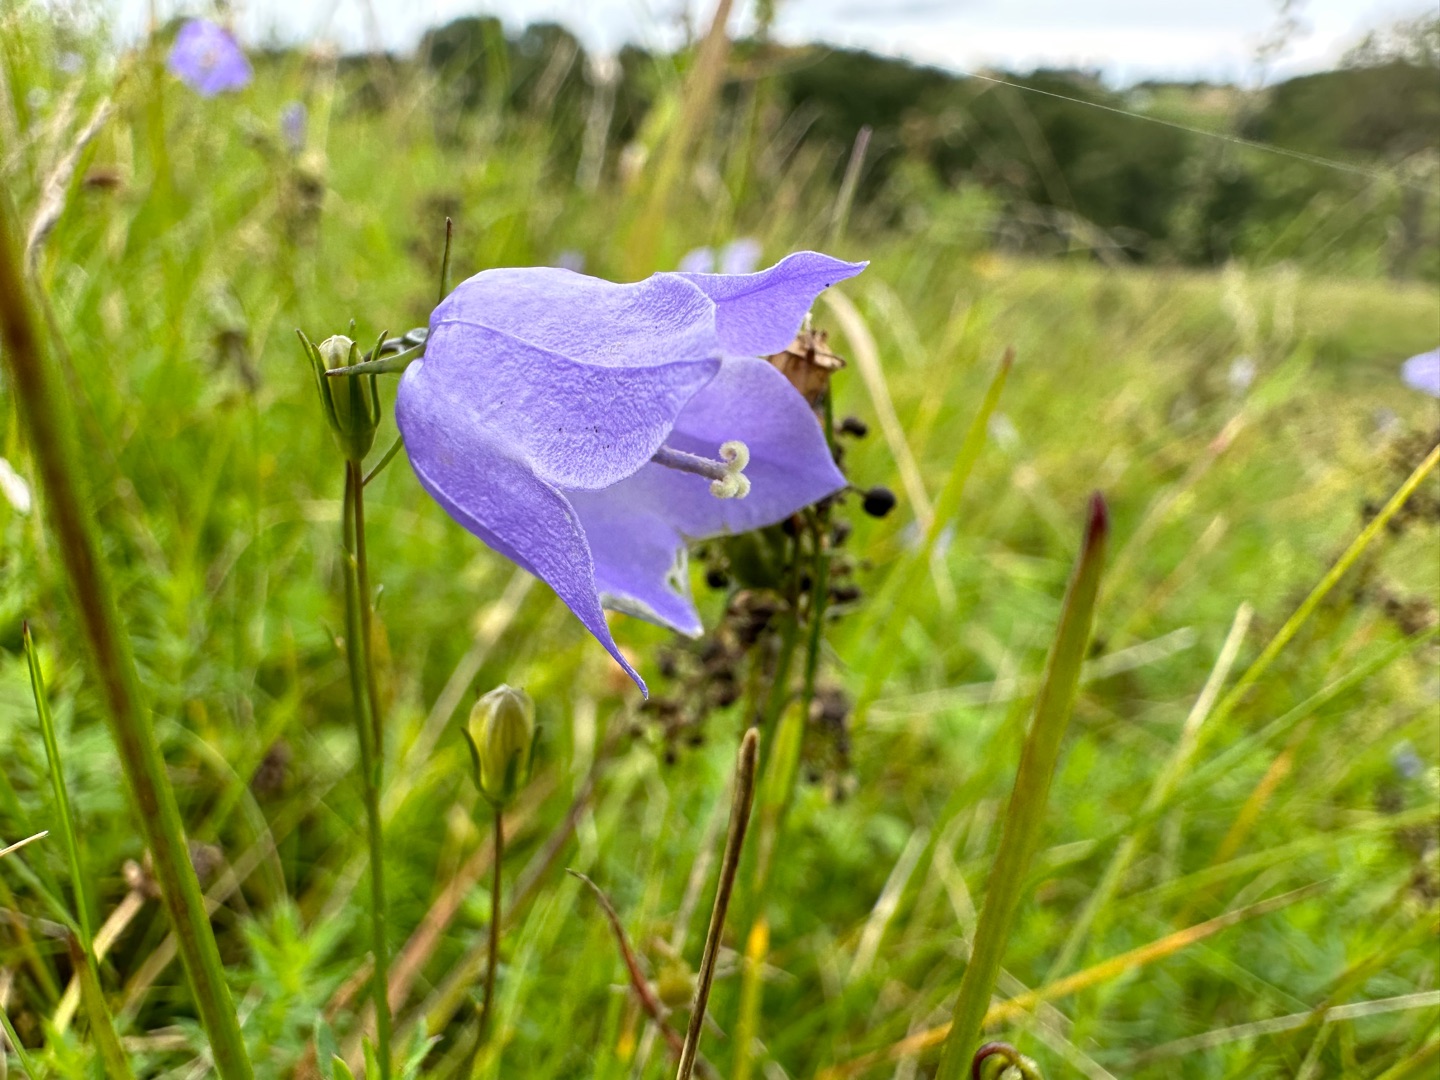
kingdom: Plantae
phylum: Tracheophyta
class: Magnoliopsida
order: Asterales
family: Campanulaceae
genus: Campanula
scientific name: Campanula rotundifolia
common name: Liden klokke
